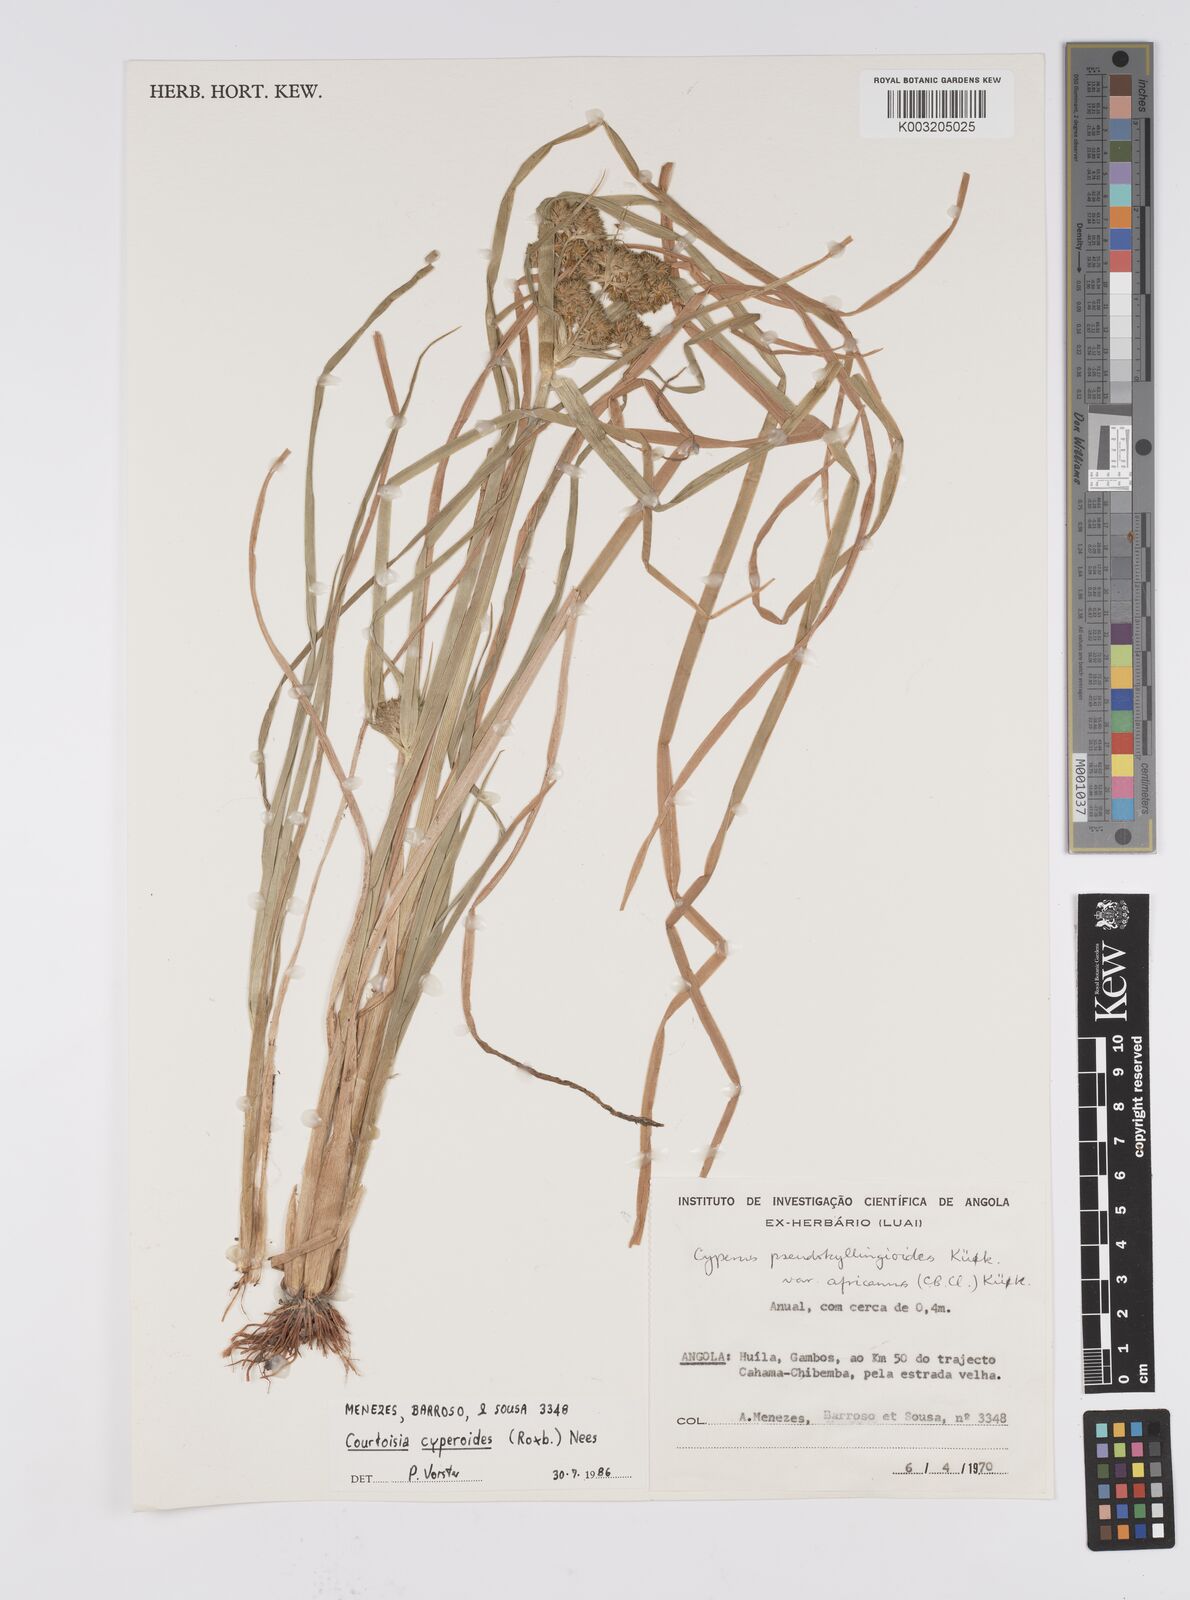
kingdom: Plantae
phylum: Tracheophyta
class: Liliopsida
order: Poales
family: Cyperaceae
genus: Cyperus
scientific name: Cyperus cyperoides
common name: Pacific island flat sedge
